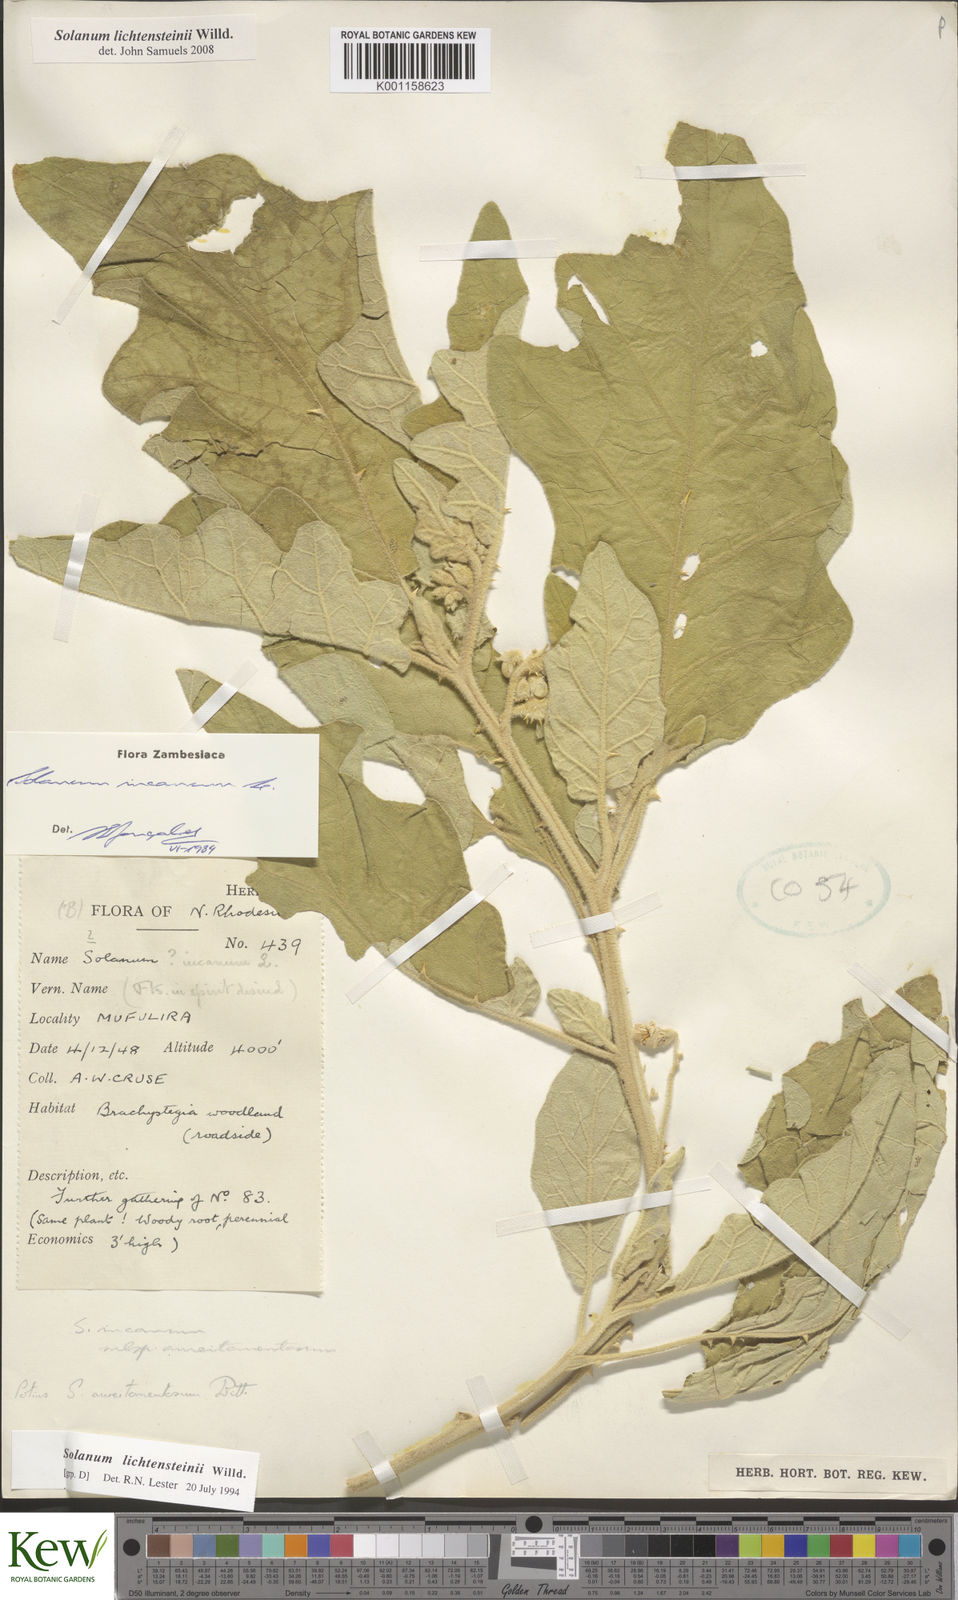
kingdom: Plantae
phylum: Tracheophyta
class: Magnoliopsida
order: Solanales
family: Solanaceae
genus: Solanum
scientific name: Solanum lichtensteinii
